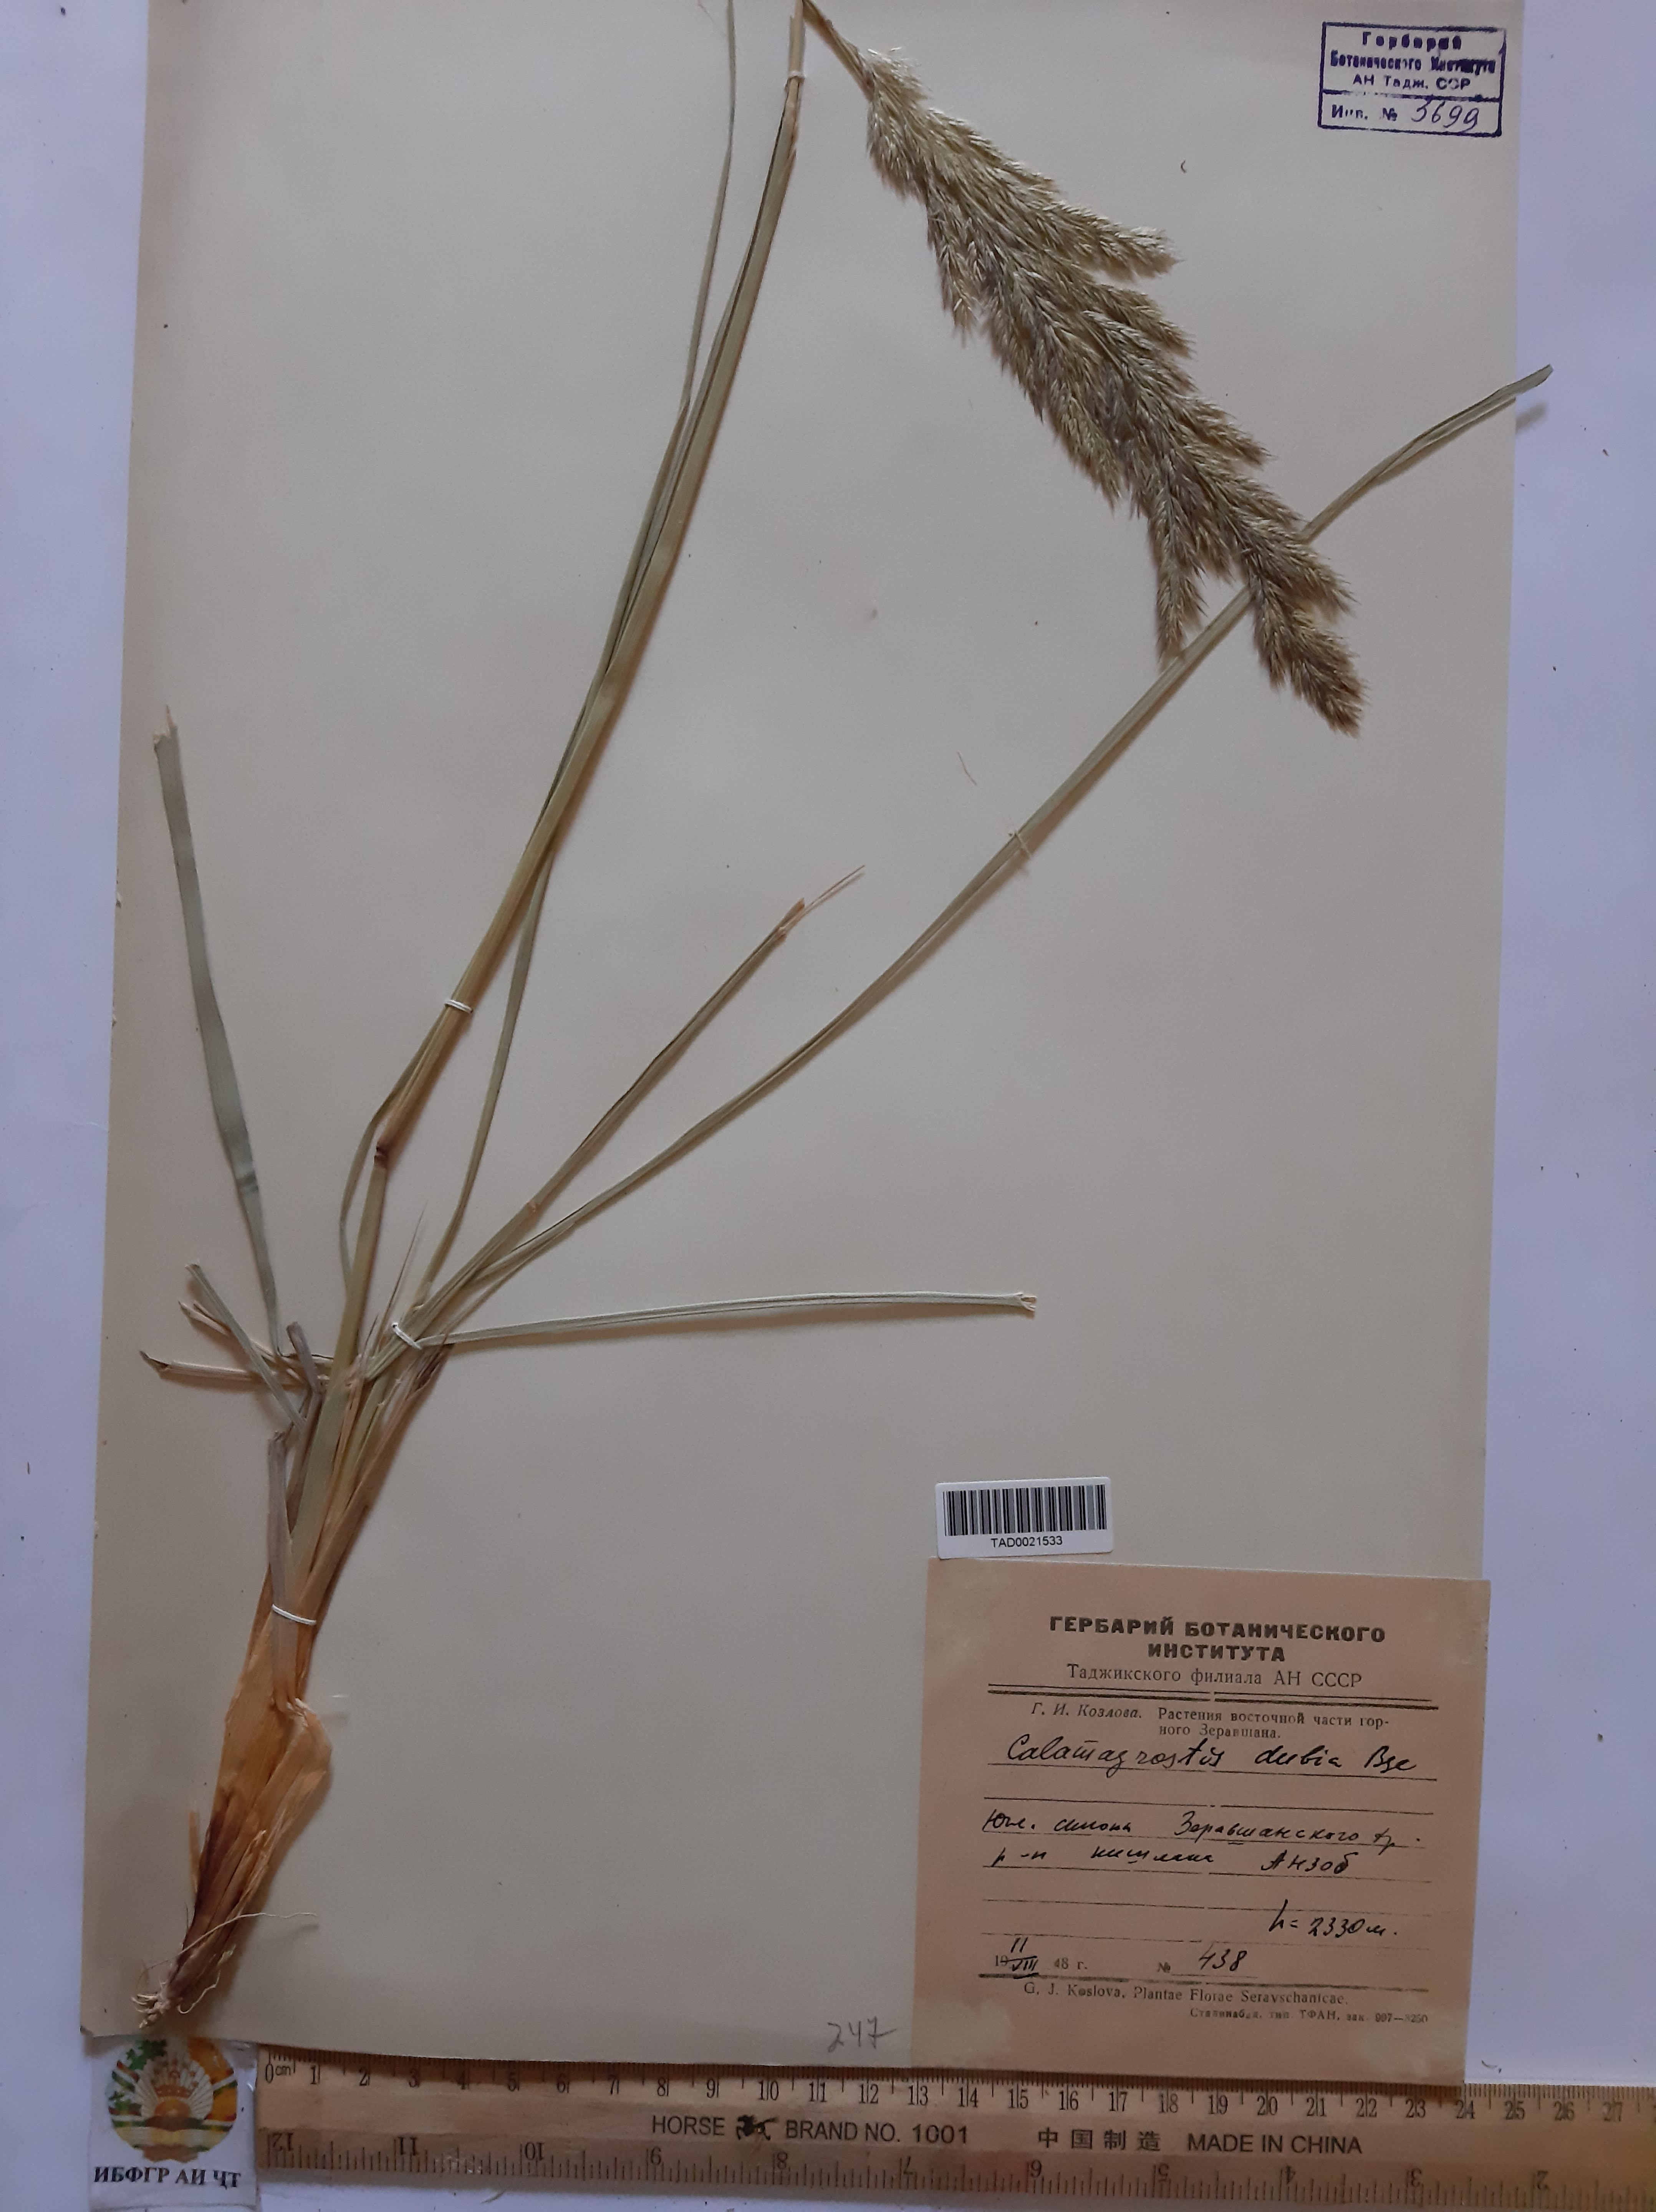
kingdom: Plantae
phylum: Tracheophyta
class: Liliopsida
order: Poales
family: Poaceae
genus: Calamagrostis
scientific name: Calamagrostis pseudophragmites
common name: Coastal small-reed
